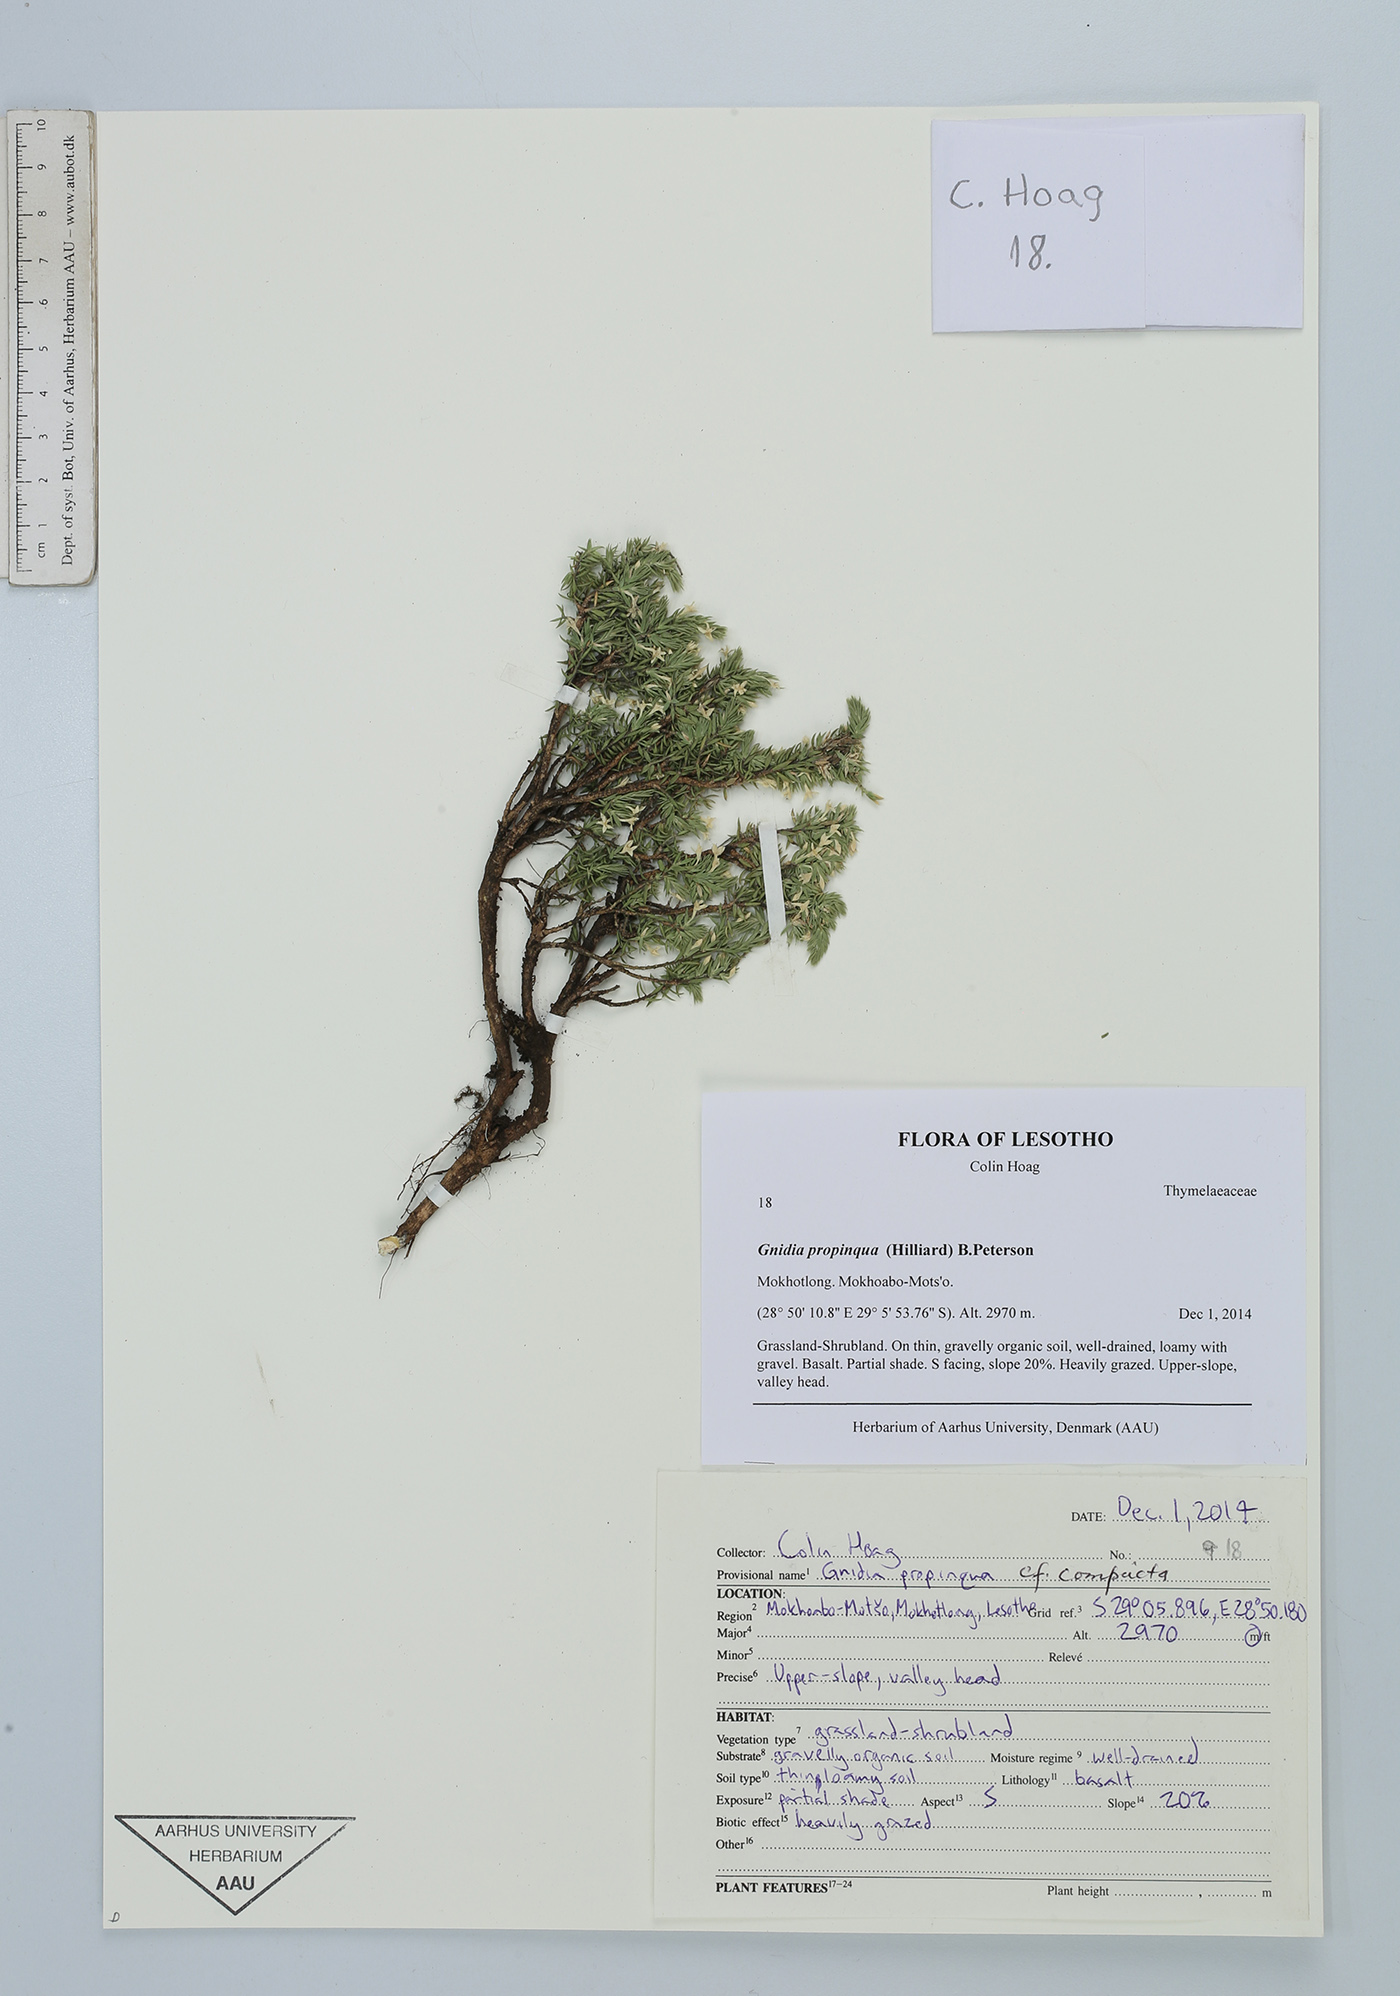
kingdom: Plantae
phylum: Tracheophyta
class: Magnoliopsida
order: Malvales
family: Thymelaeaceae
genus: Gnidia
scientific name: Gnidia propinqua
